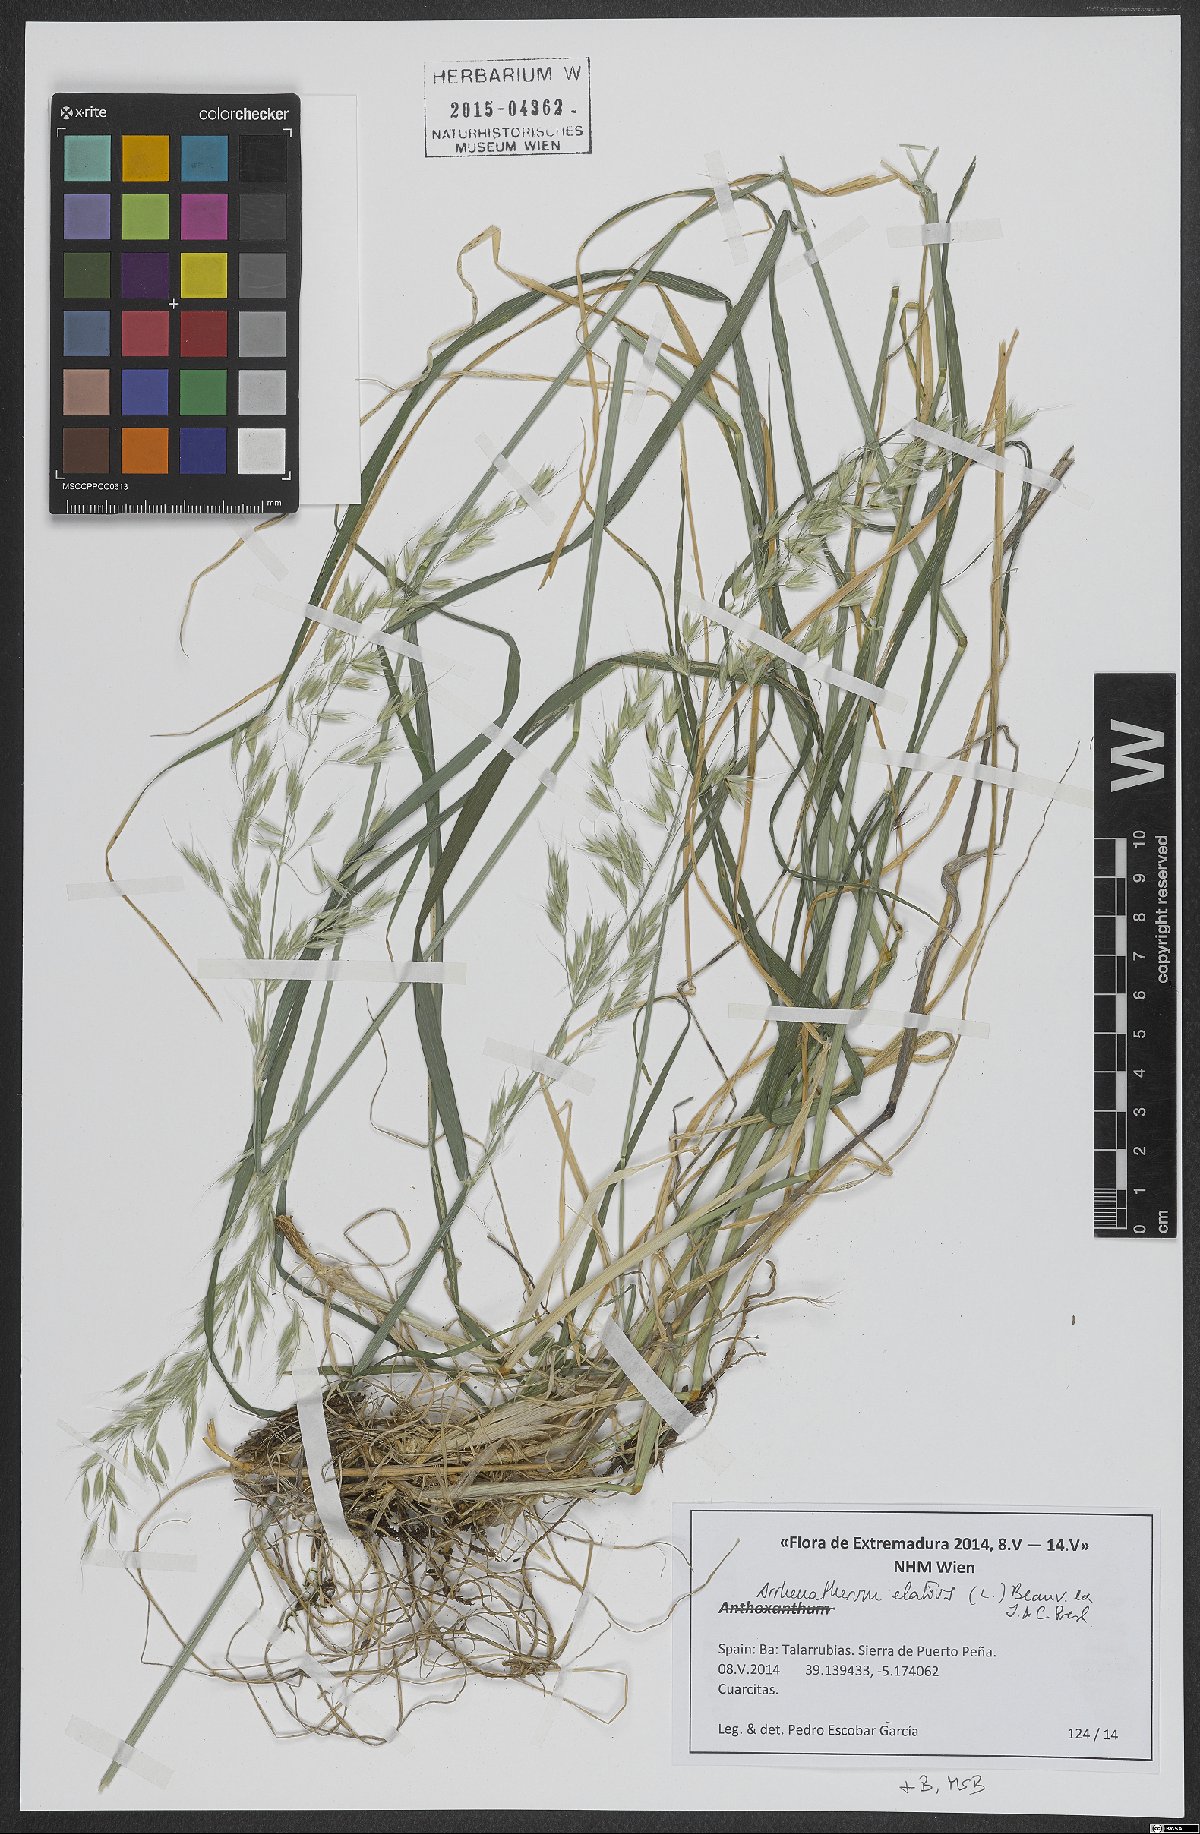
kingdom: Plantae
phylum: Tracheophyta
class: Liliopsida
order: Poales
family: Poaceae
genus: Arrhenatherum
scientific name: Arrhenatherum elatius
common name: Tall oatgrass
